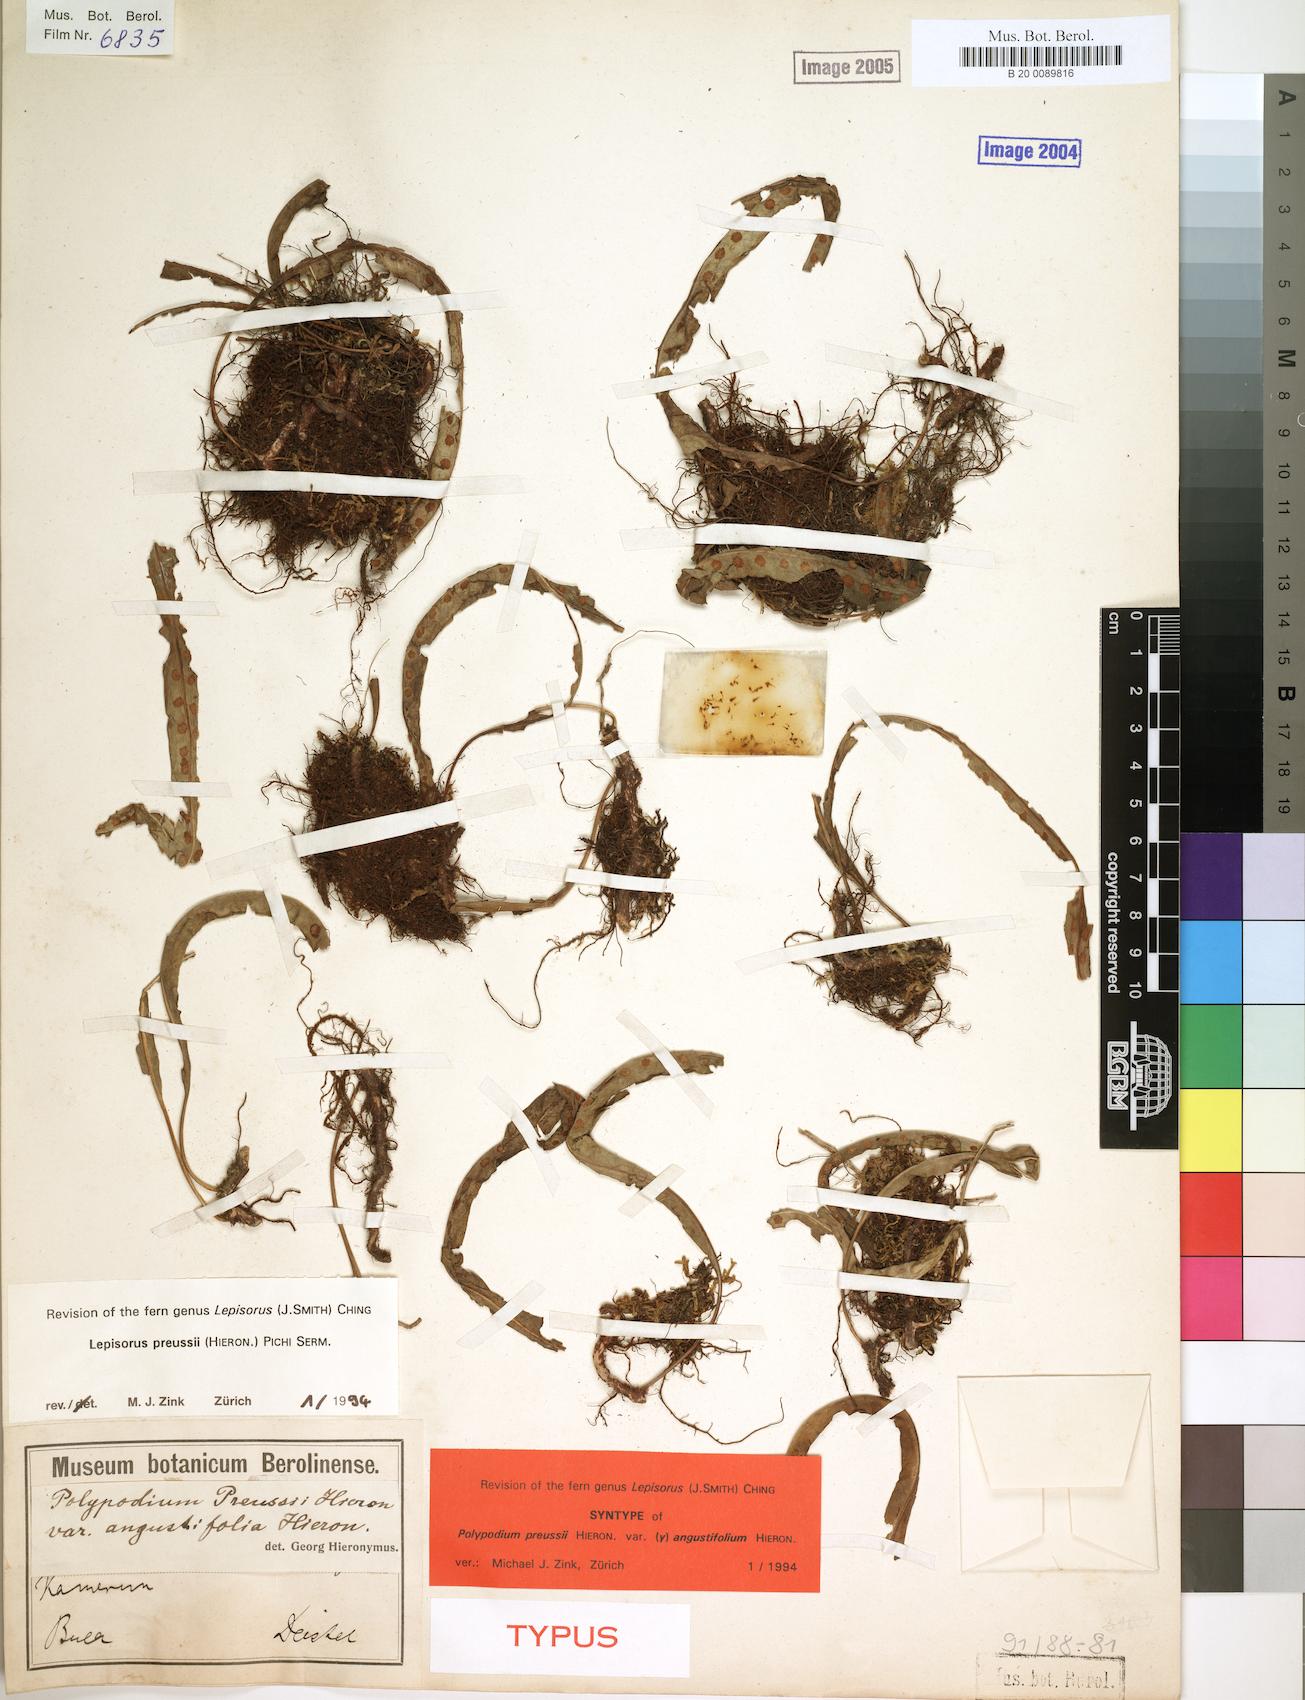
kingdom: Plantae
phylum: Tracheophyta
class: Polypodiopsida
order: Polypodiales
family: Polypodiaceae
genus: Lepisorus
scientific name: Lepisorus excavatus
